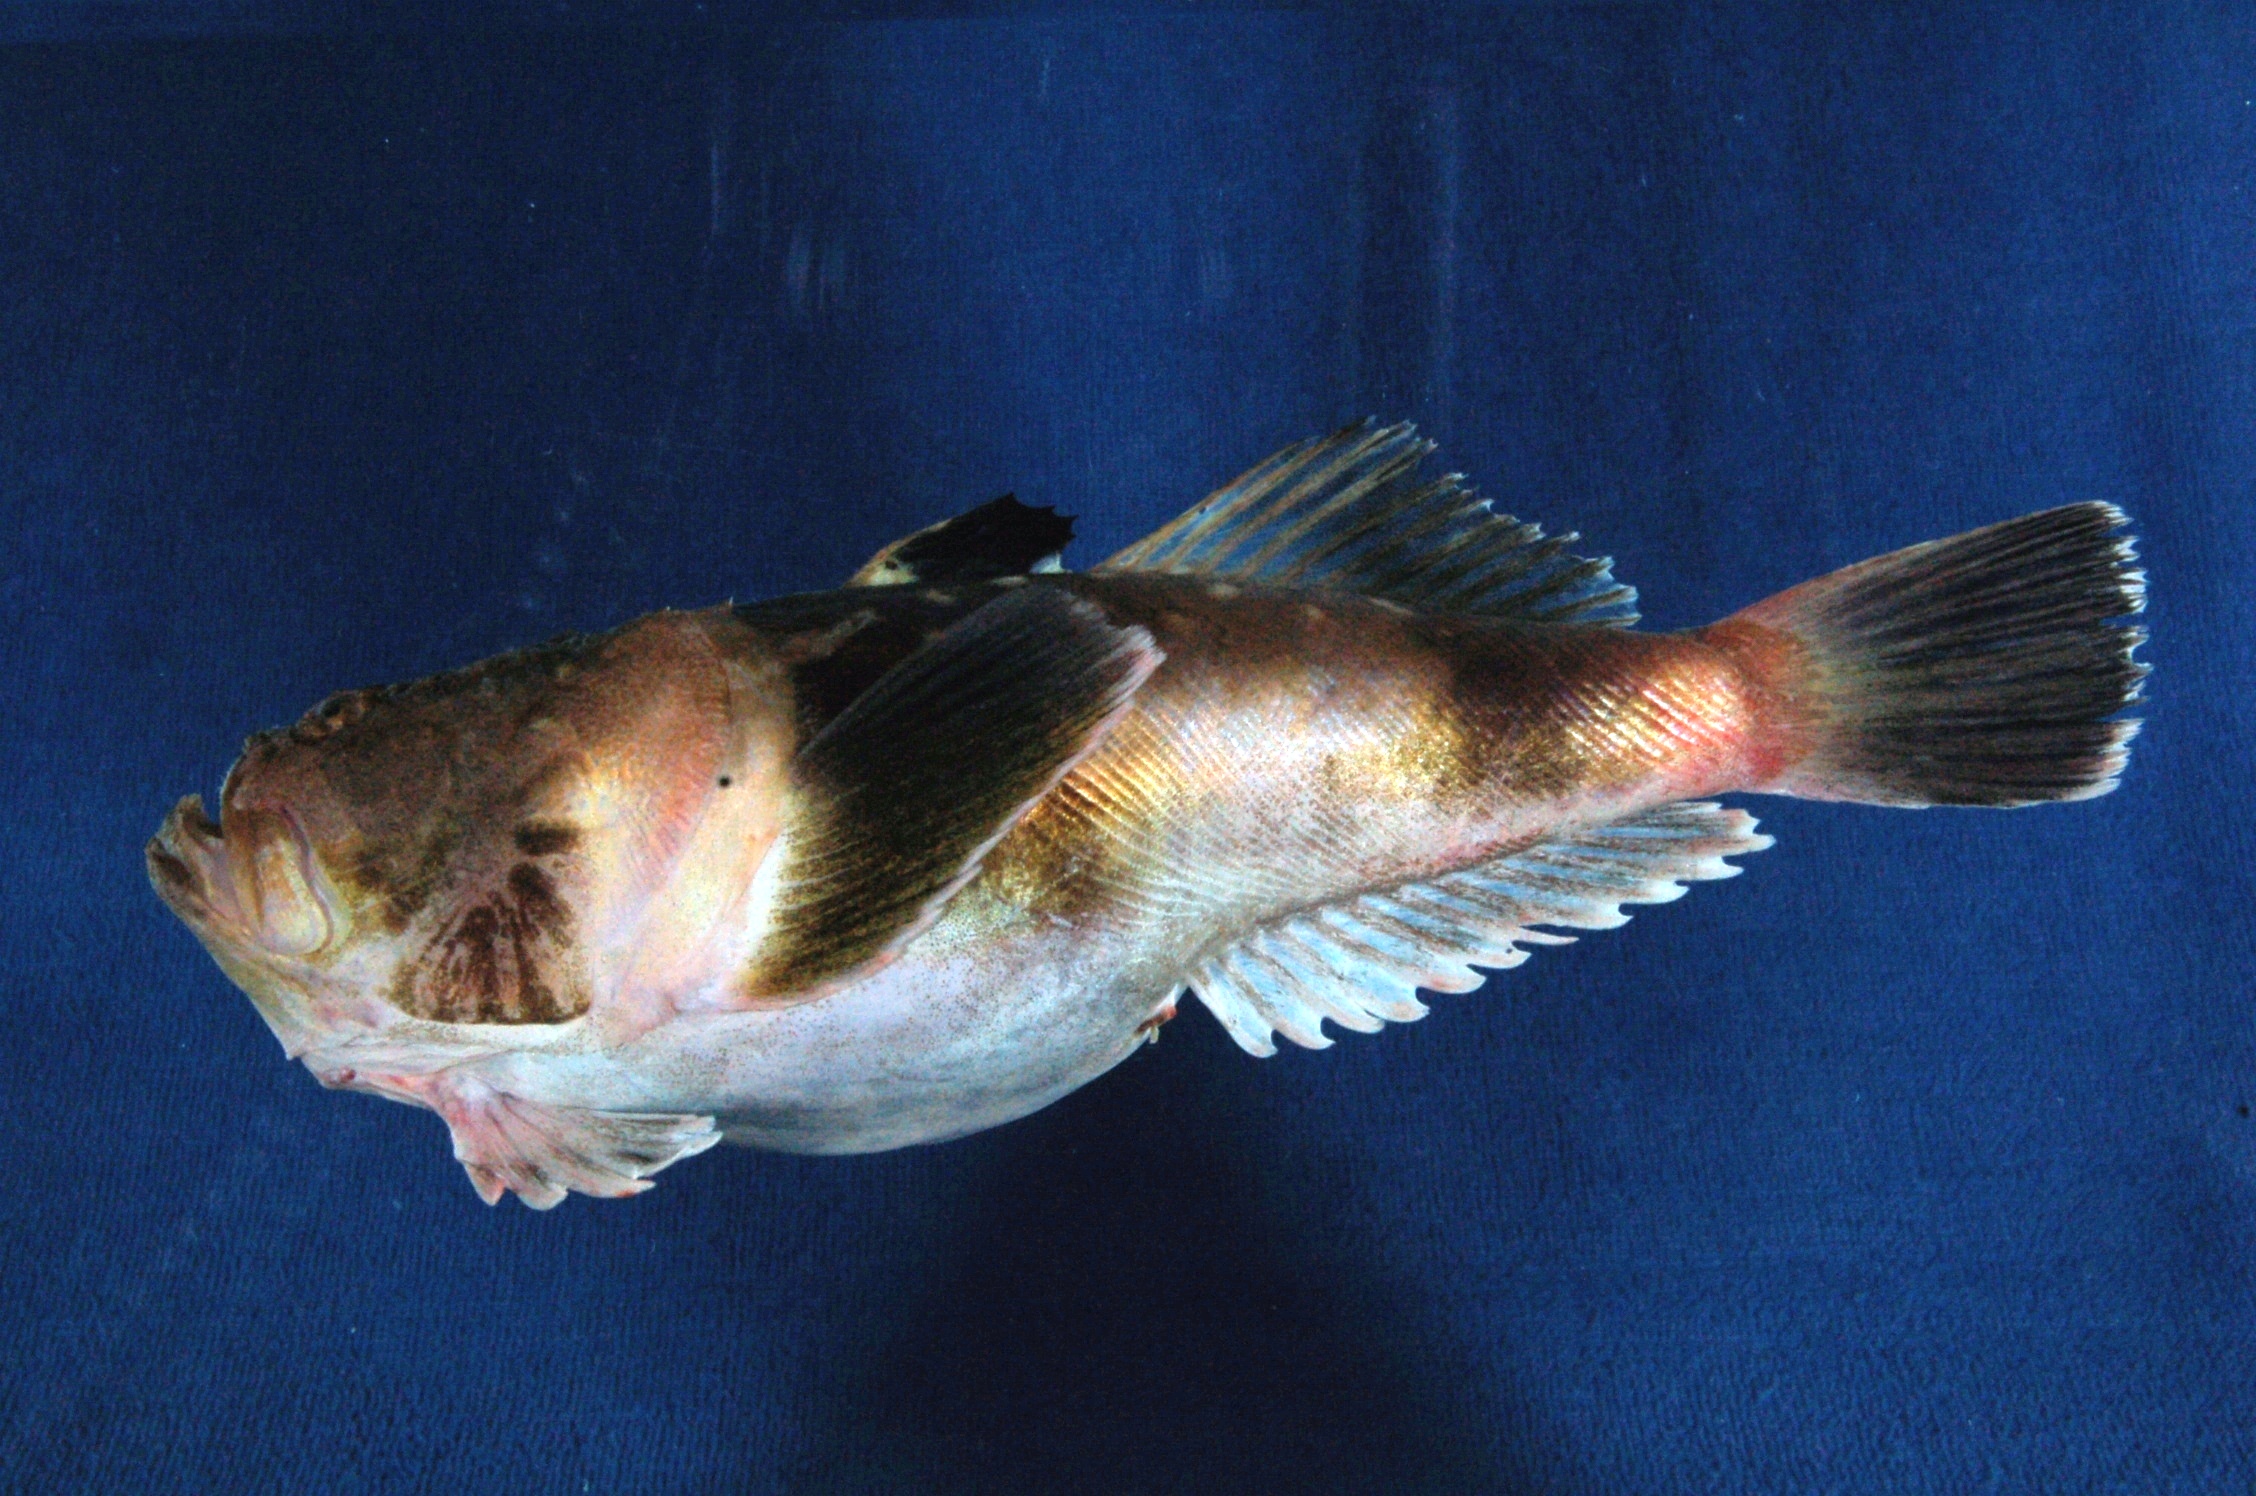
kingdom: Animalia
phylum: Chordata
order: Perciformes
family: Uranoscopidae
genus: Uranoscopus
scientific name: Uranoscopus archionema
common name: Stargazer
